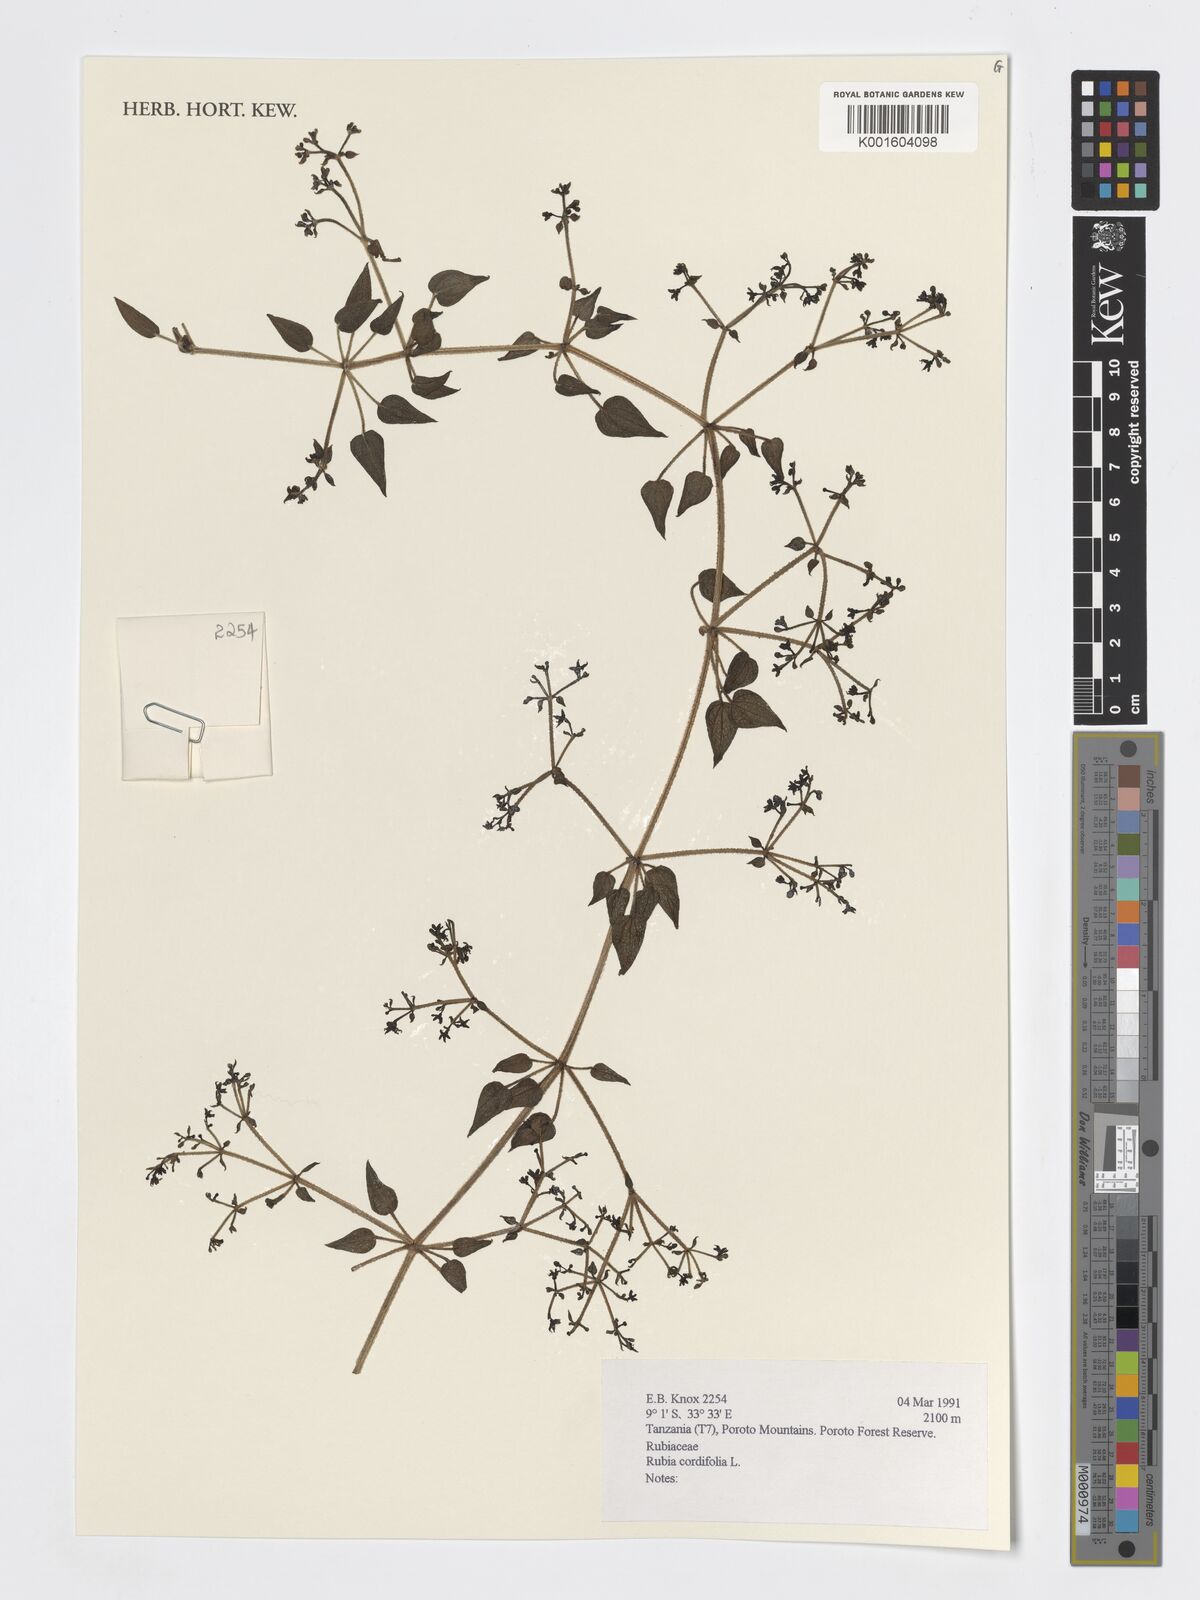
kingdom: Plantae
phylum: Tracheophyta
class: Magnoliopsida
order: Gentianales
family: Rubiaceae
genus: Rubia
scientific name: Rubia cordifolia
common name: Indian madder
